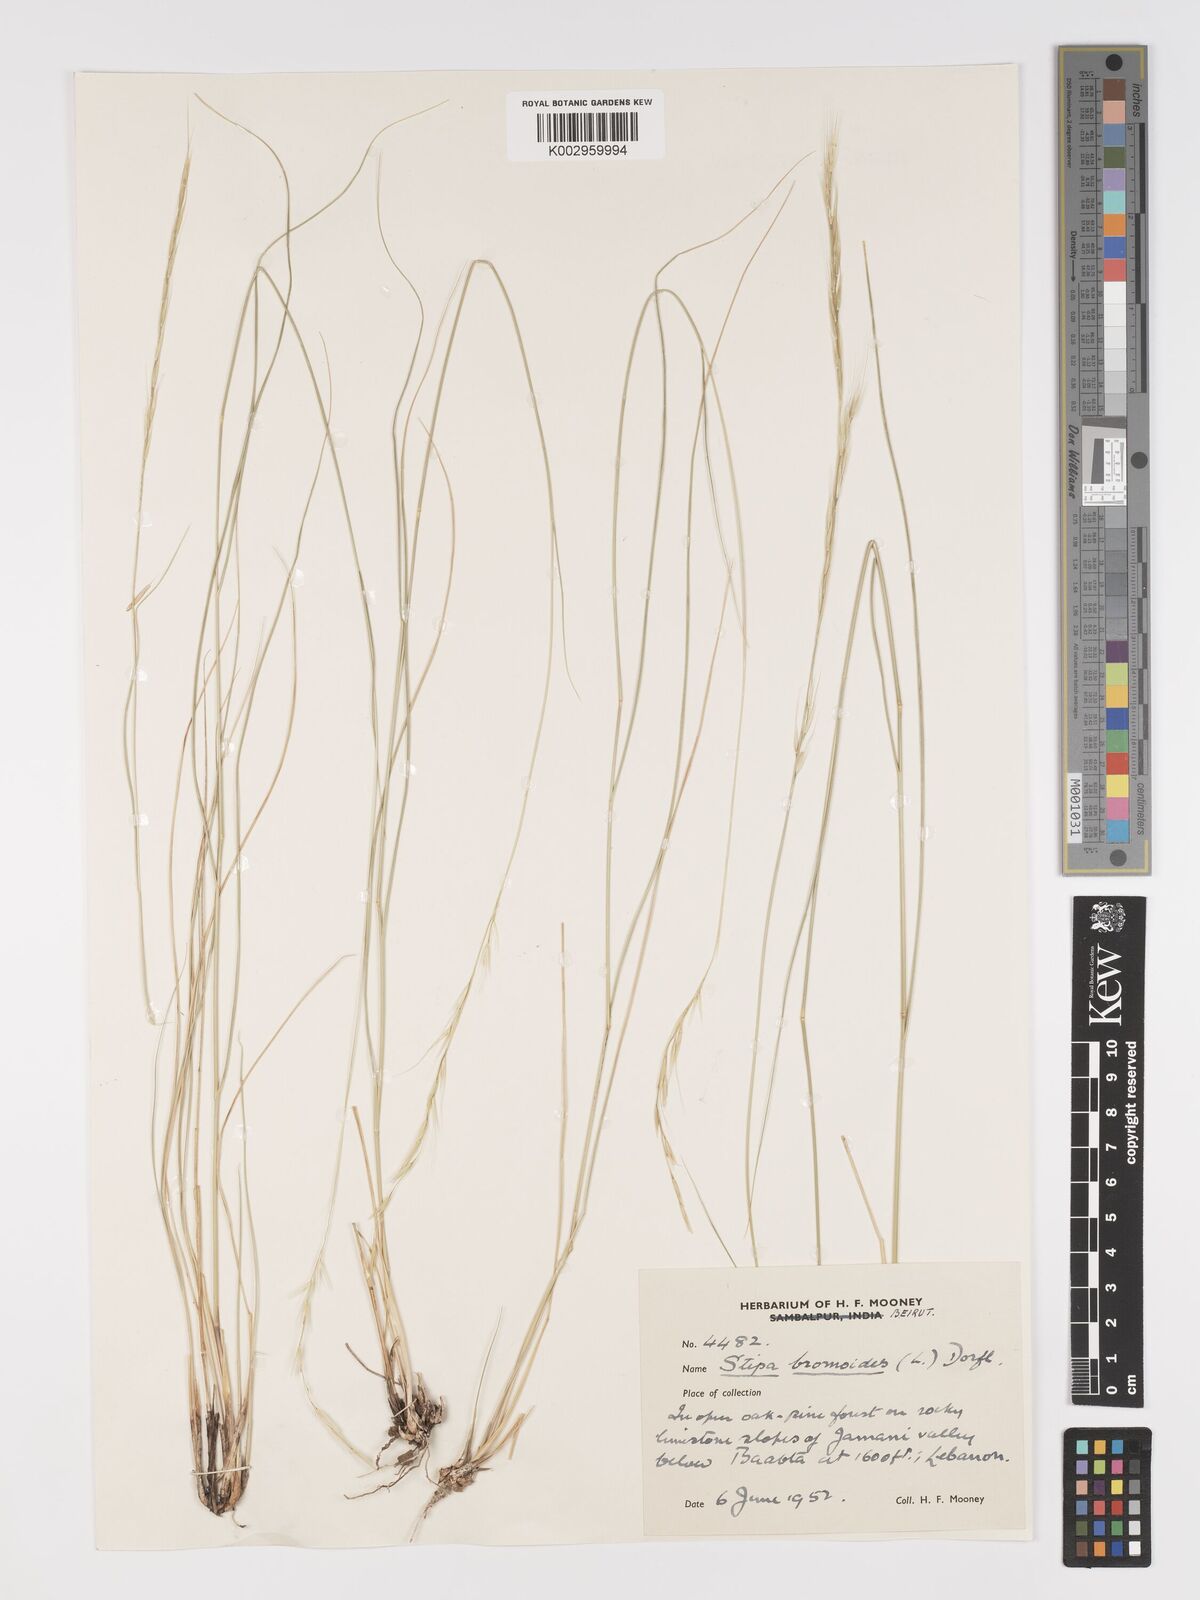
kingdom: Plantae
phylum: Tracheophyta
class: Liliopsida
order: Poales
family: Poaceae
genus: Achnatherum
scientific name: Achnatherum bromoides
